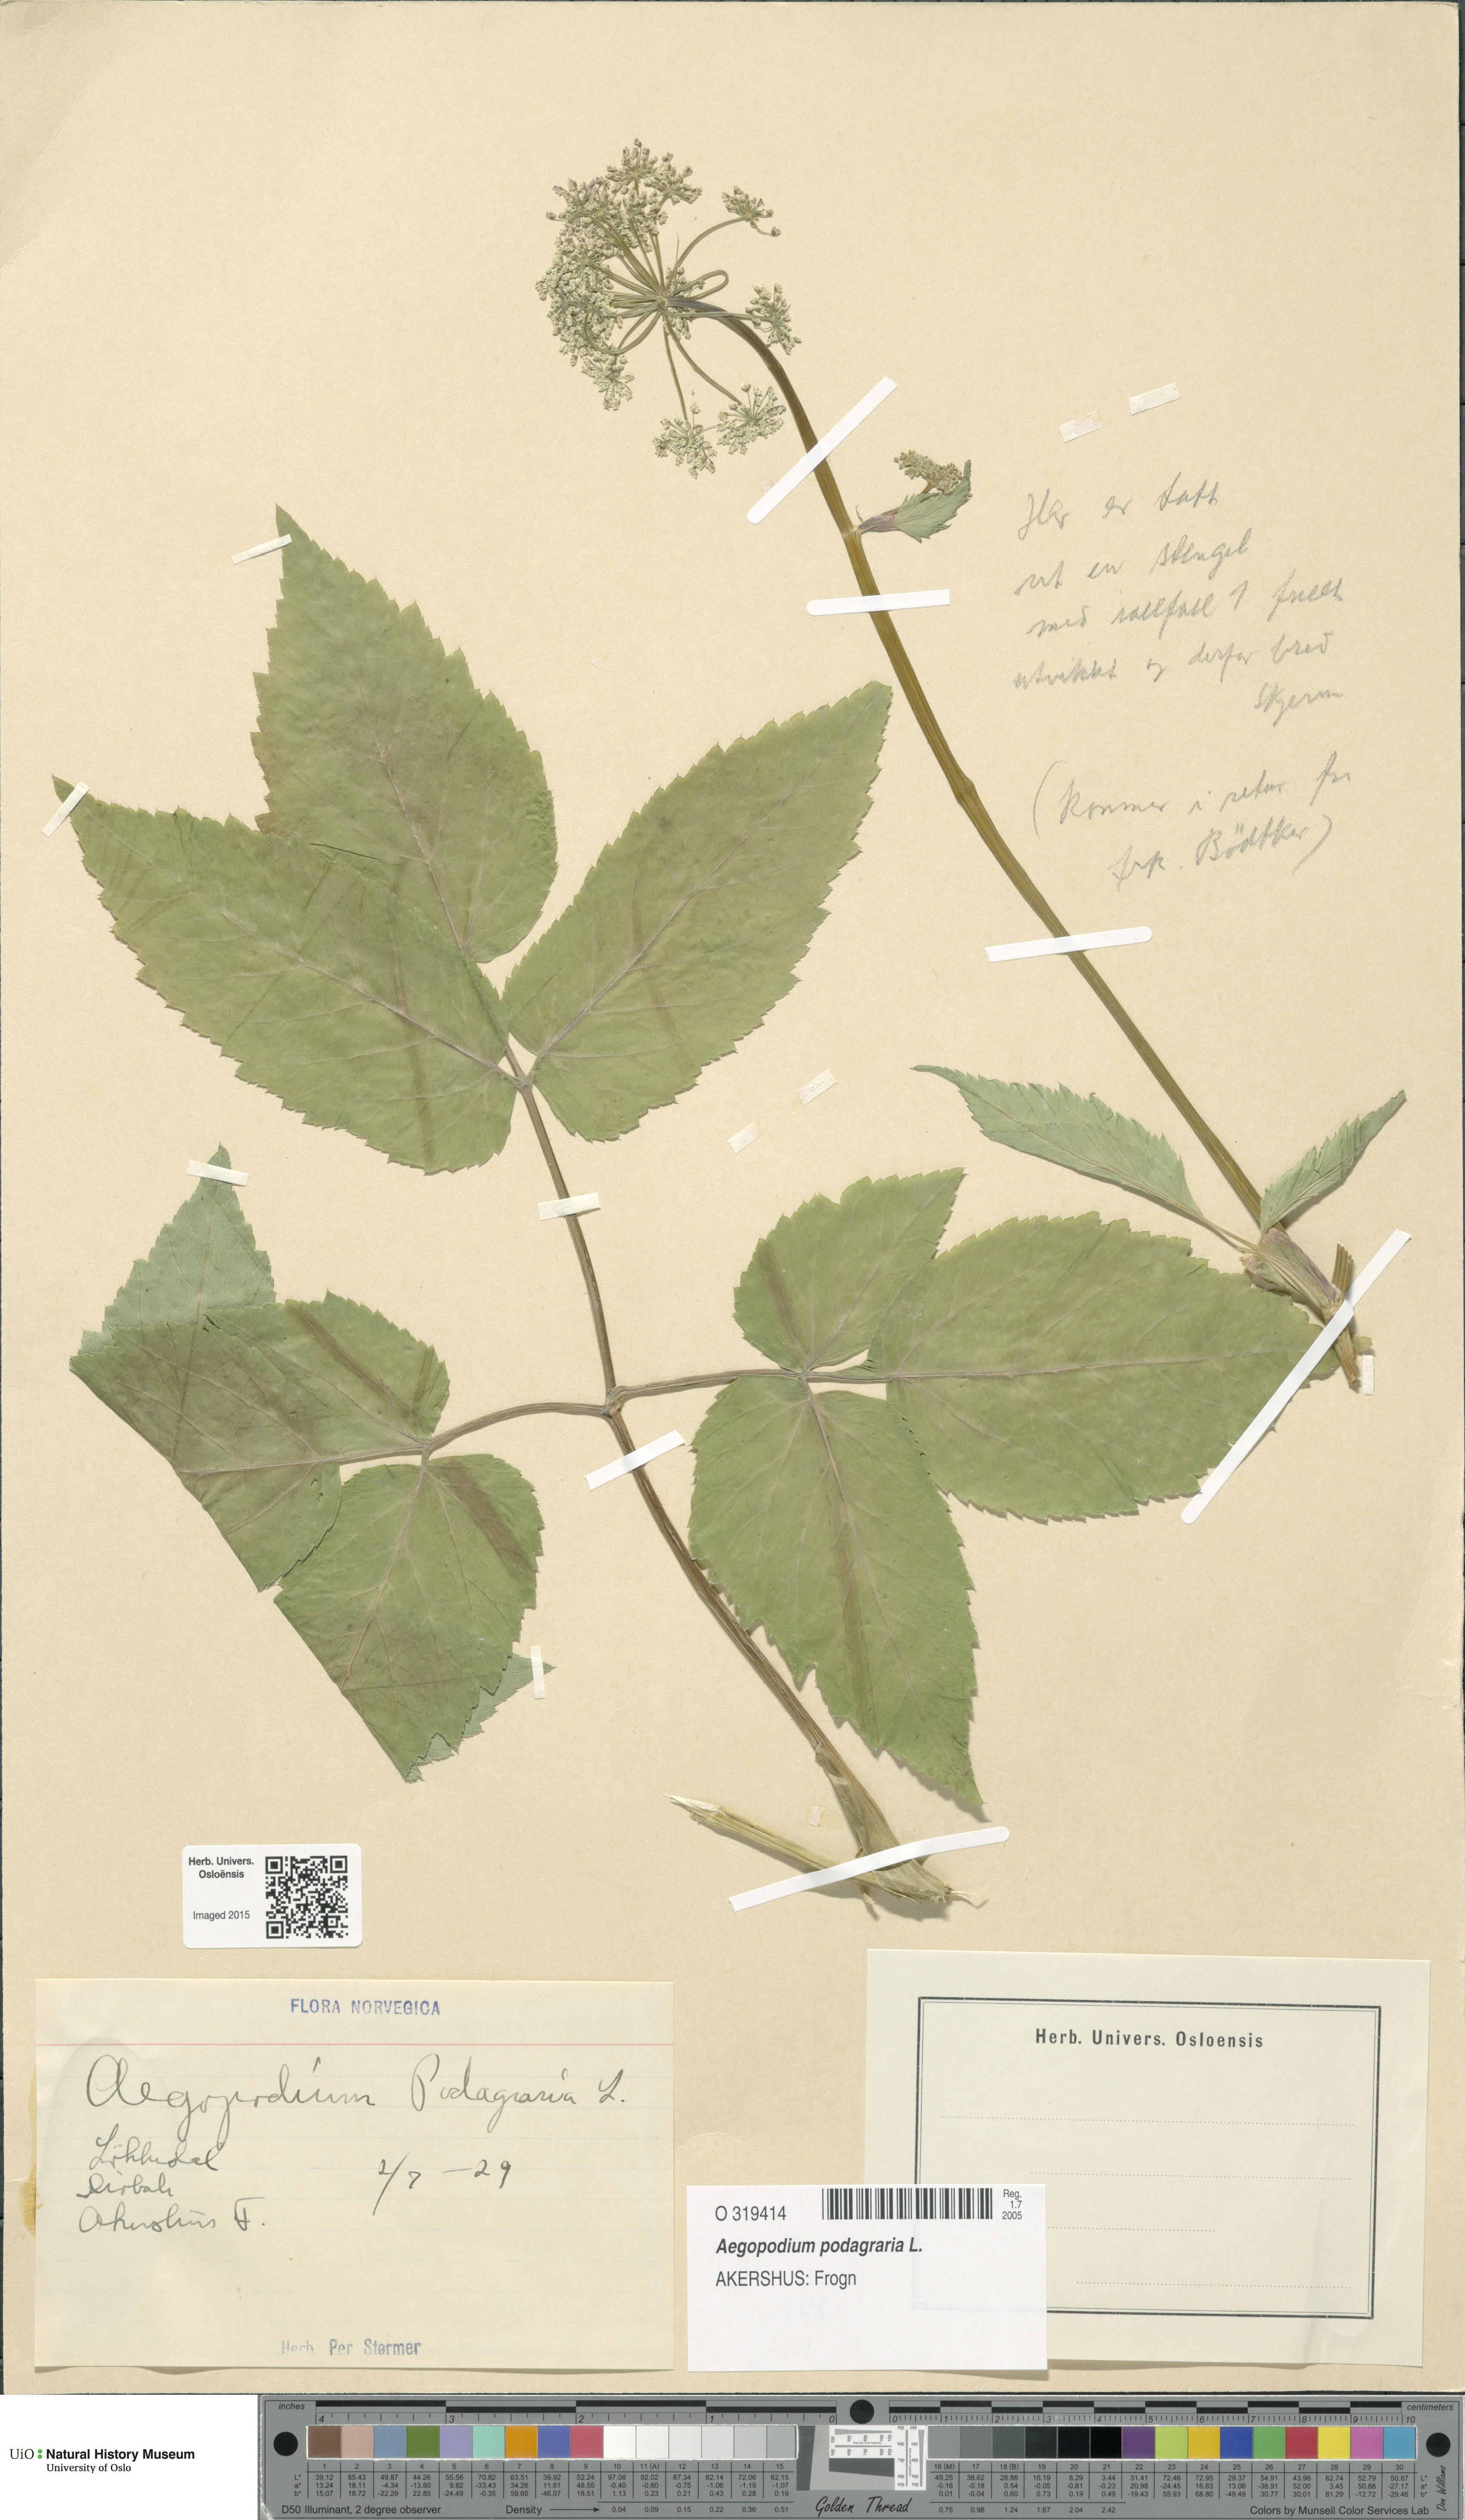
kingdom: Plantae
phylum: Tracheophyta
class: Magnoliopsida
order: Apiales
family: Apiaceae
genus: Aegopodium
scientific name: Aegopodium podagraria
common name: Ground-elder
